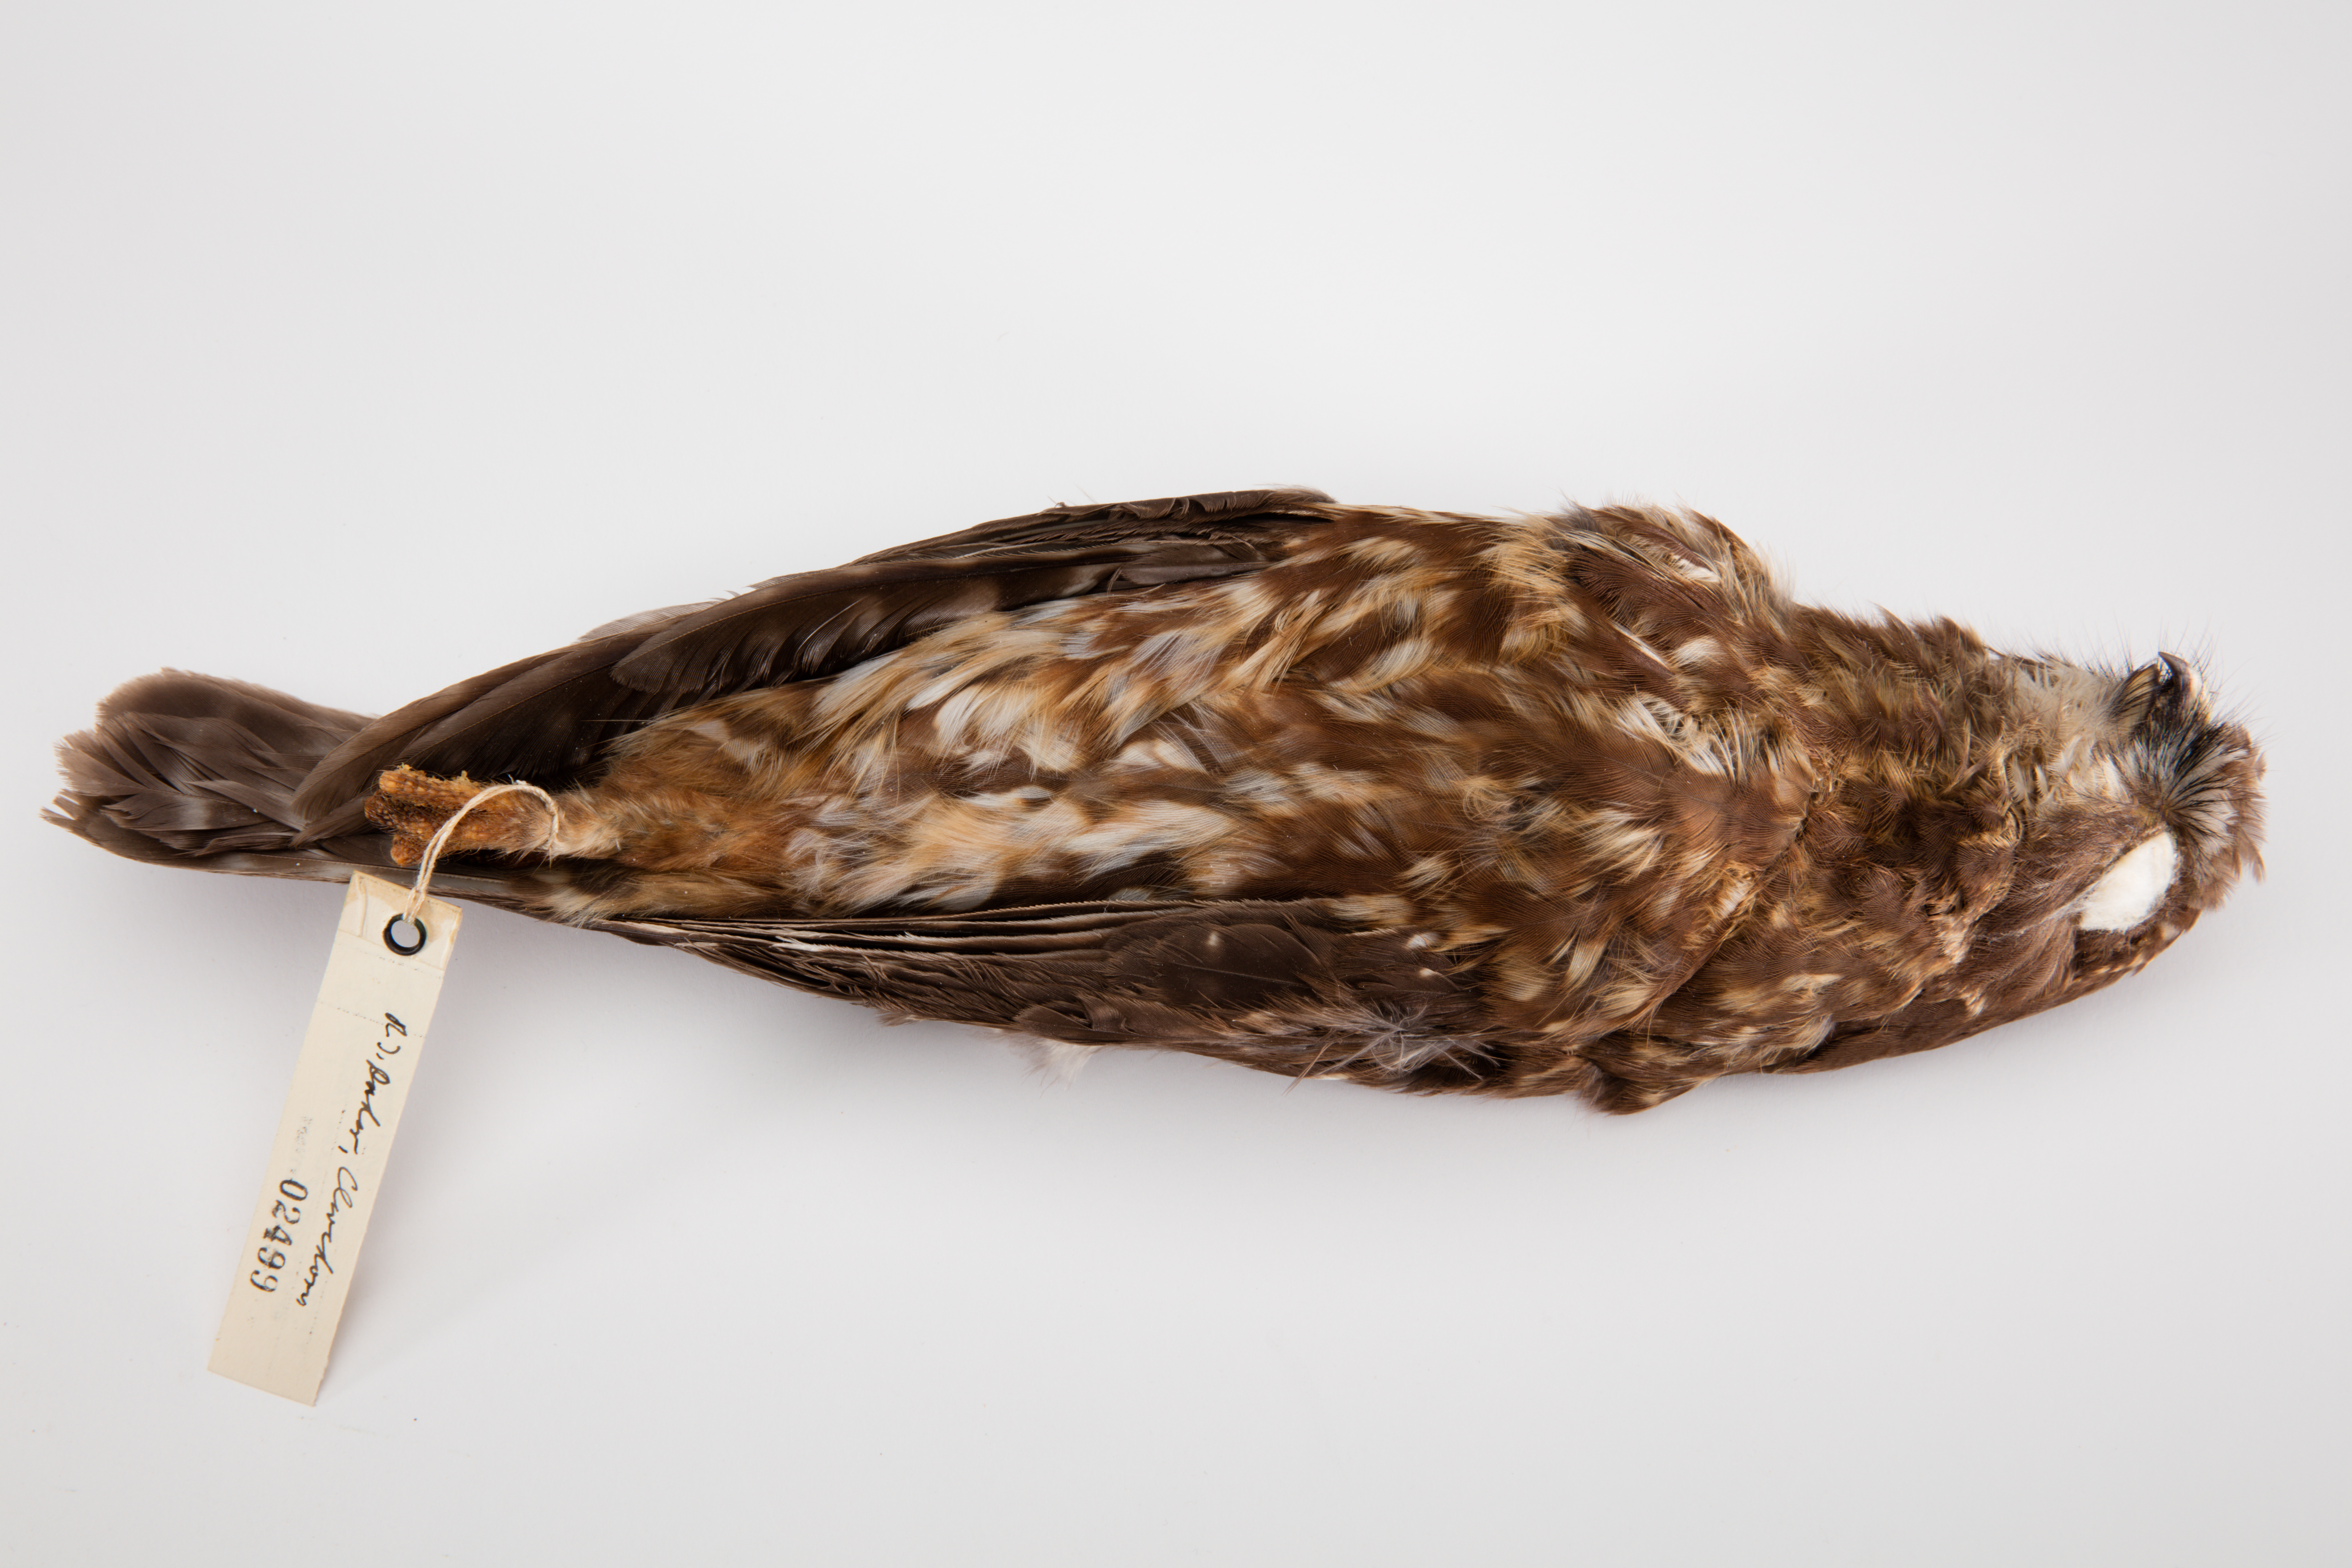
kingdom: Animalia
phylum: Chordata
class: Aves
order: Strigiformes
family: Strigidae
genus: Ninox
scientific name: Ninox novaeseelandiae
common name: Morepork
